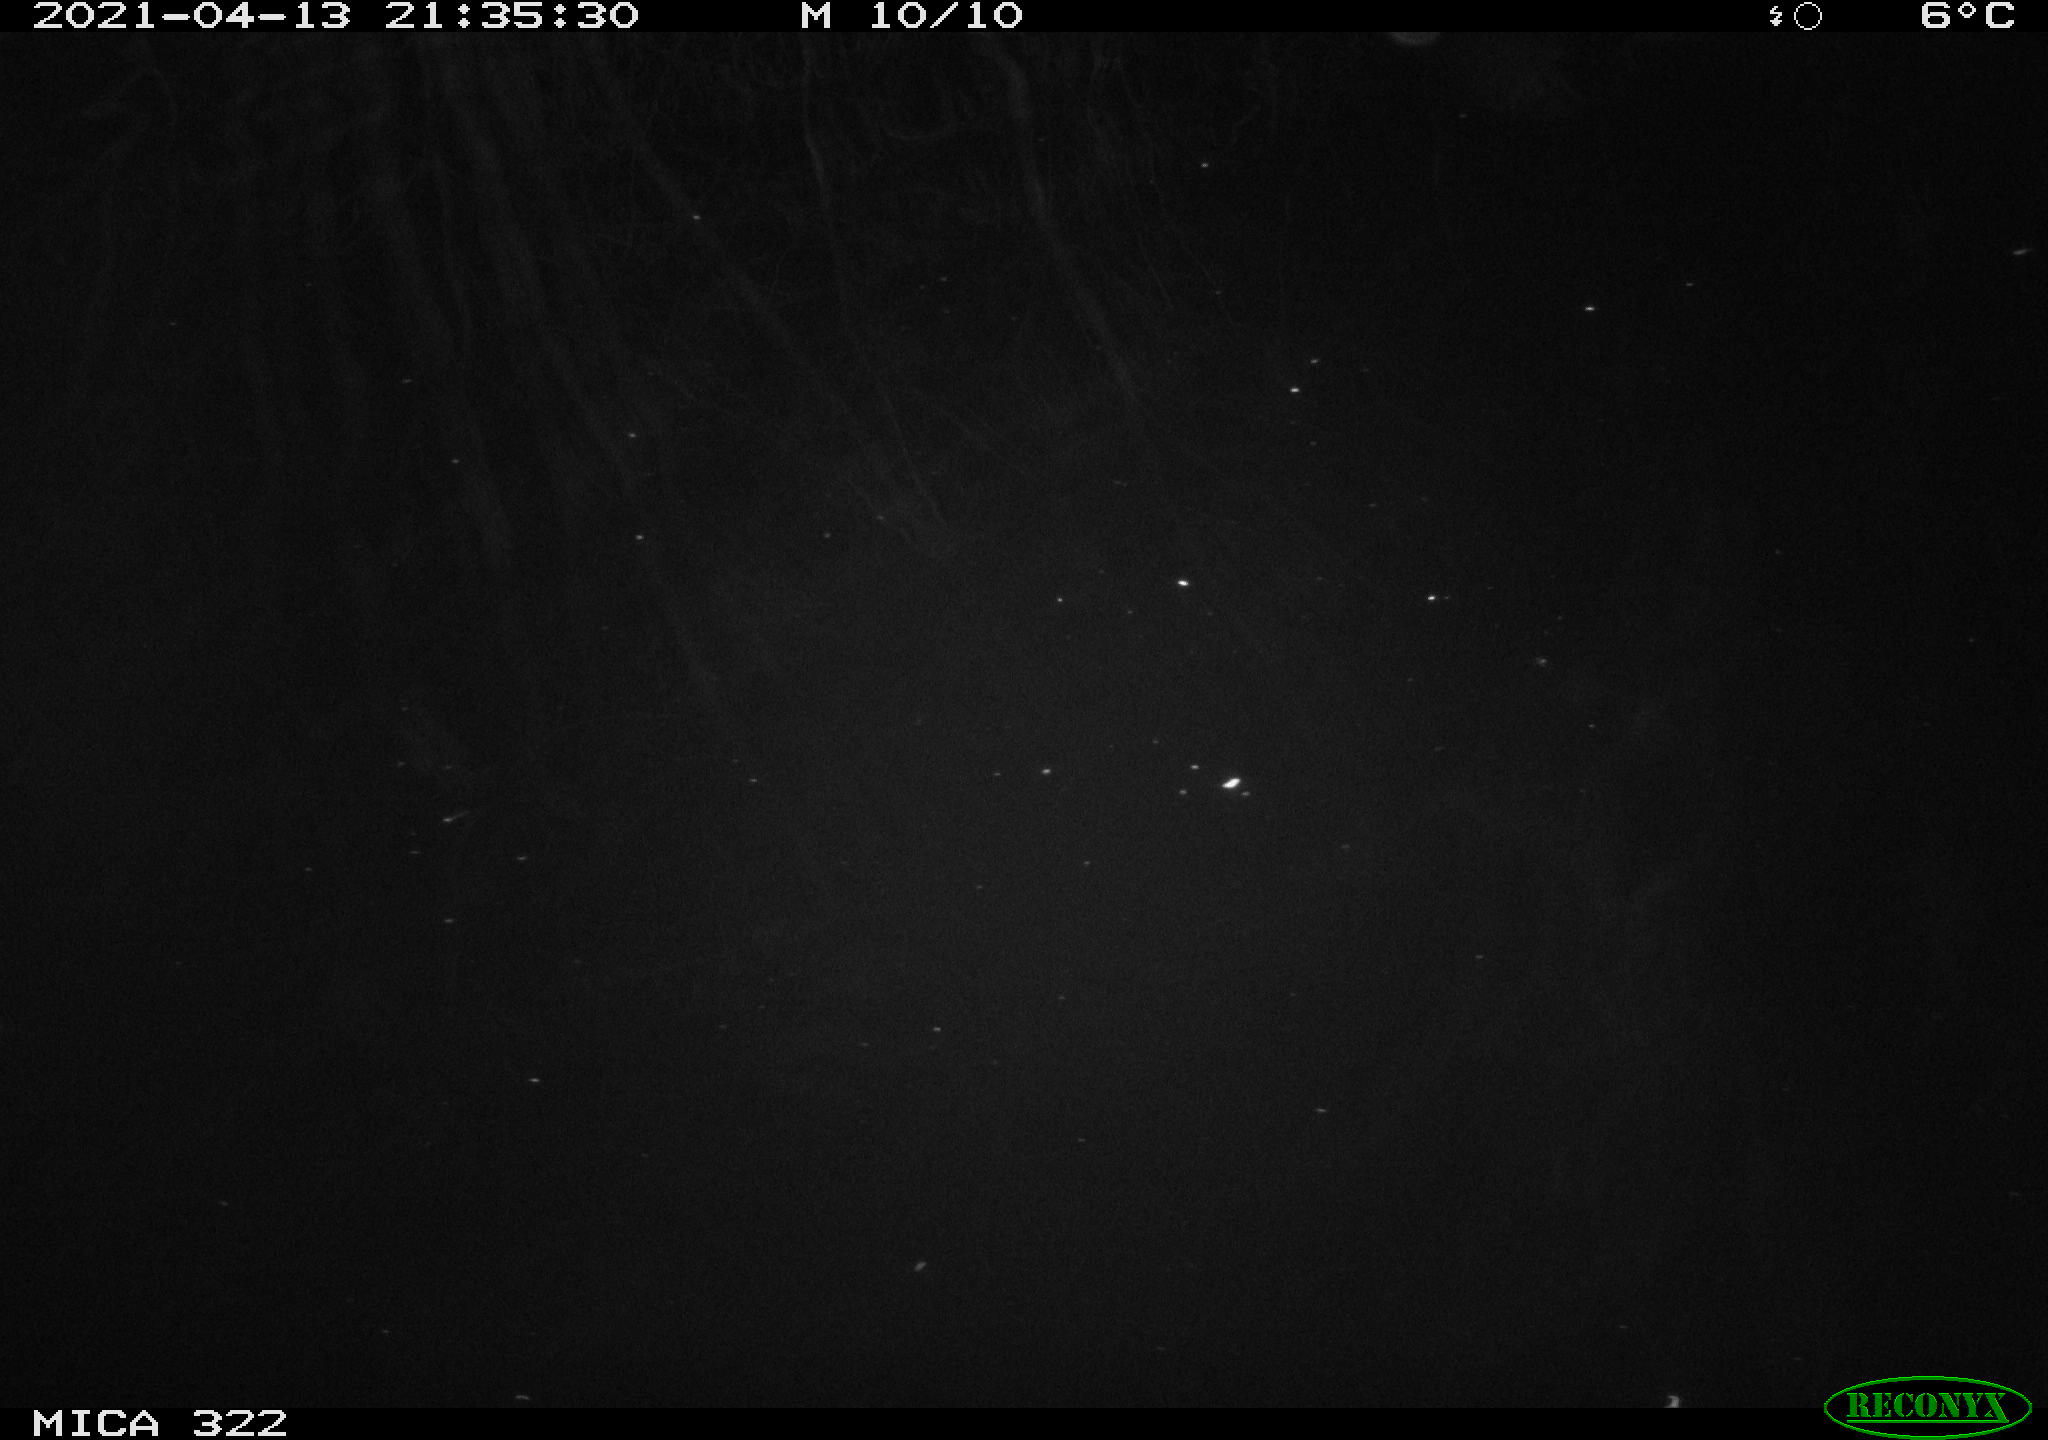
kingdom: Animalia
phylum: Chordata
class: Aves
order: Gruiformes
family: Rallidae
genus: Fulica
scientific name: Fulica atra
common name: Eurasian coot
